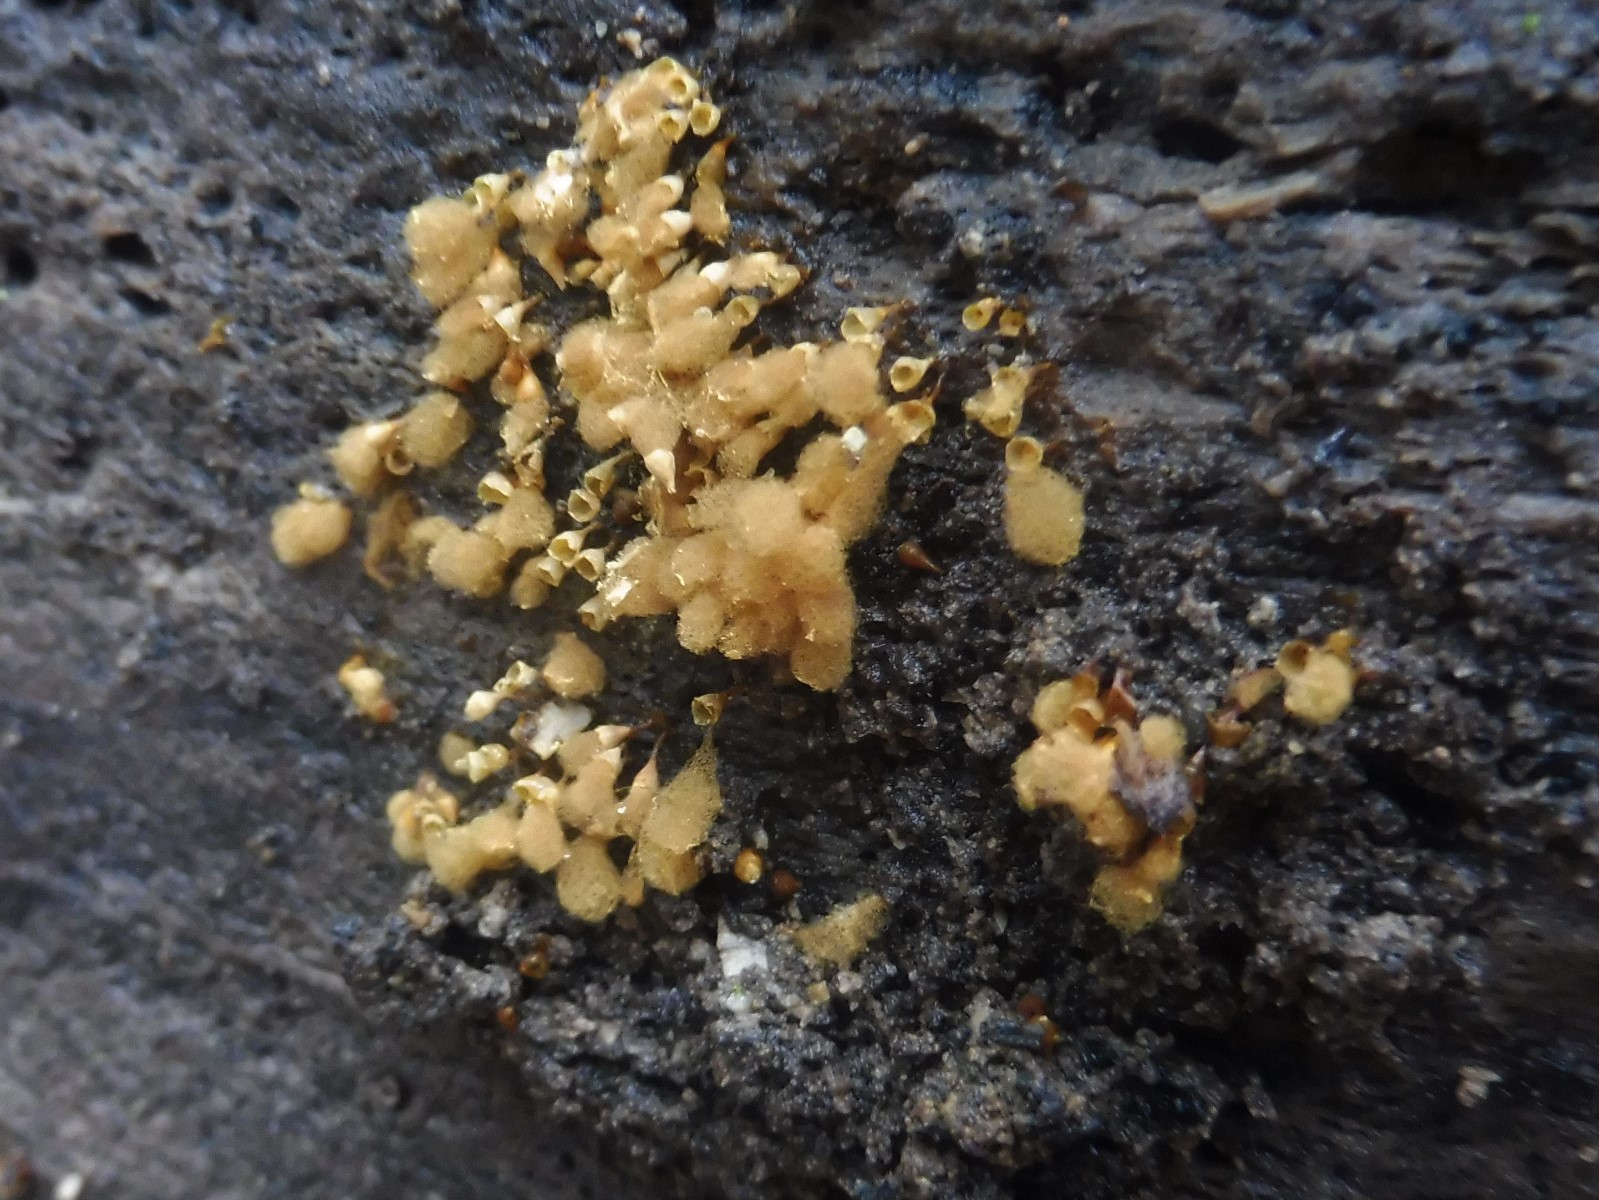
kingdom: Protozoa
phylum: Mycetozoa
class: Myxomycetes
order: Trichiales
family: Arcyriaceae
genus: Hemitrichia
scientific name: Hemitrichia clavata
